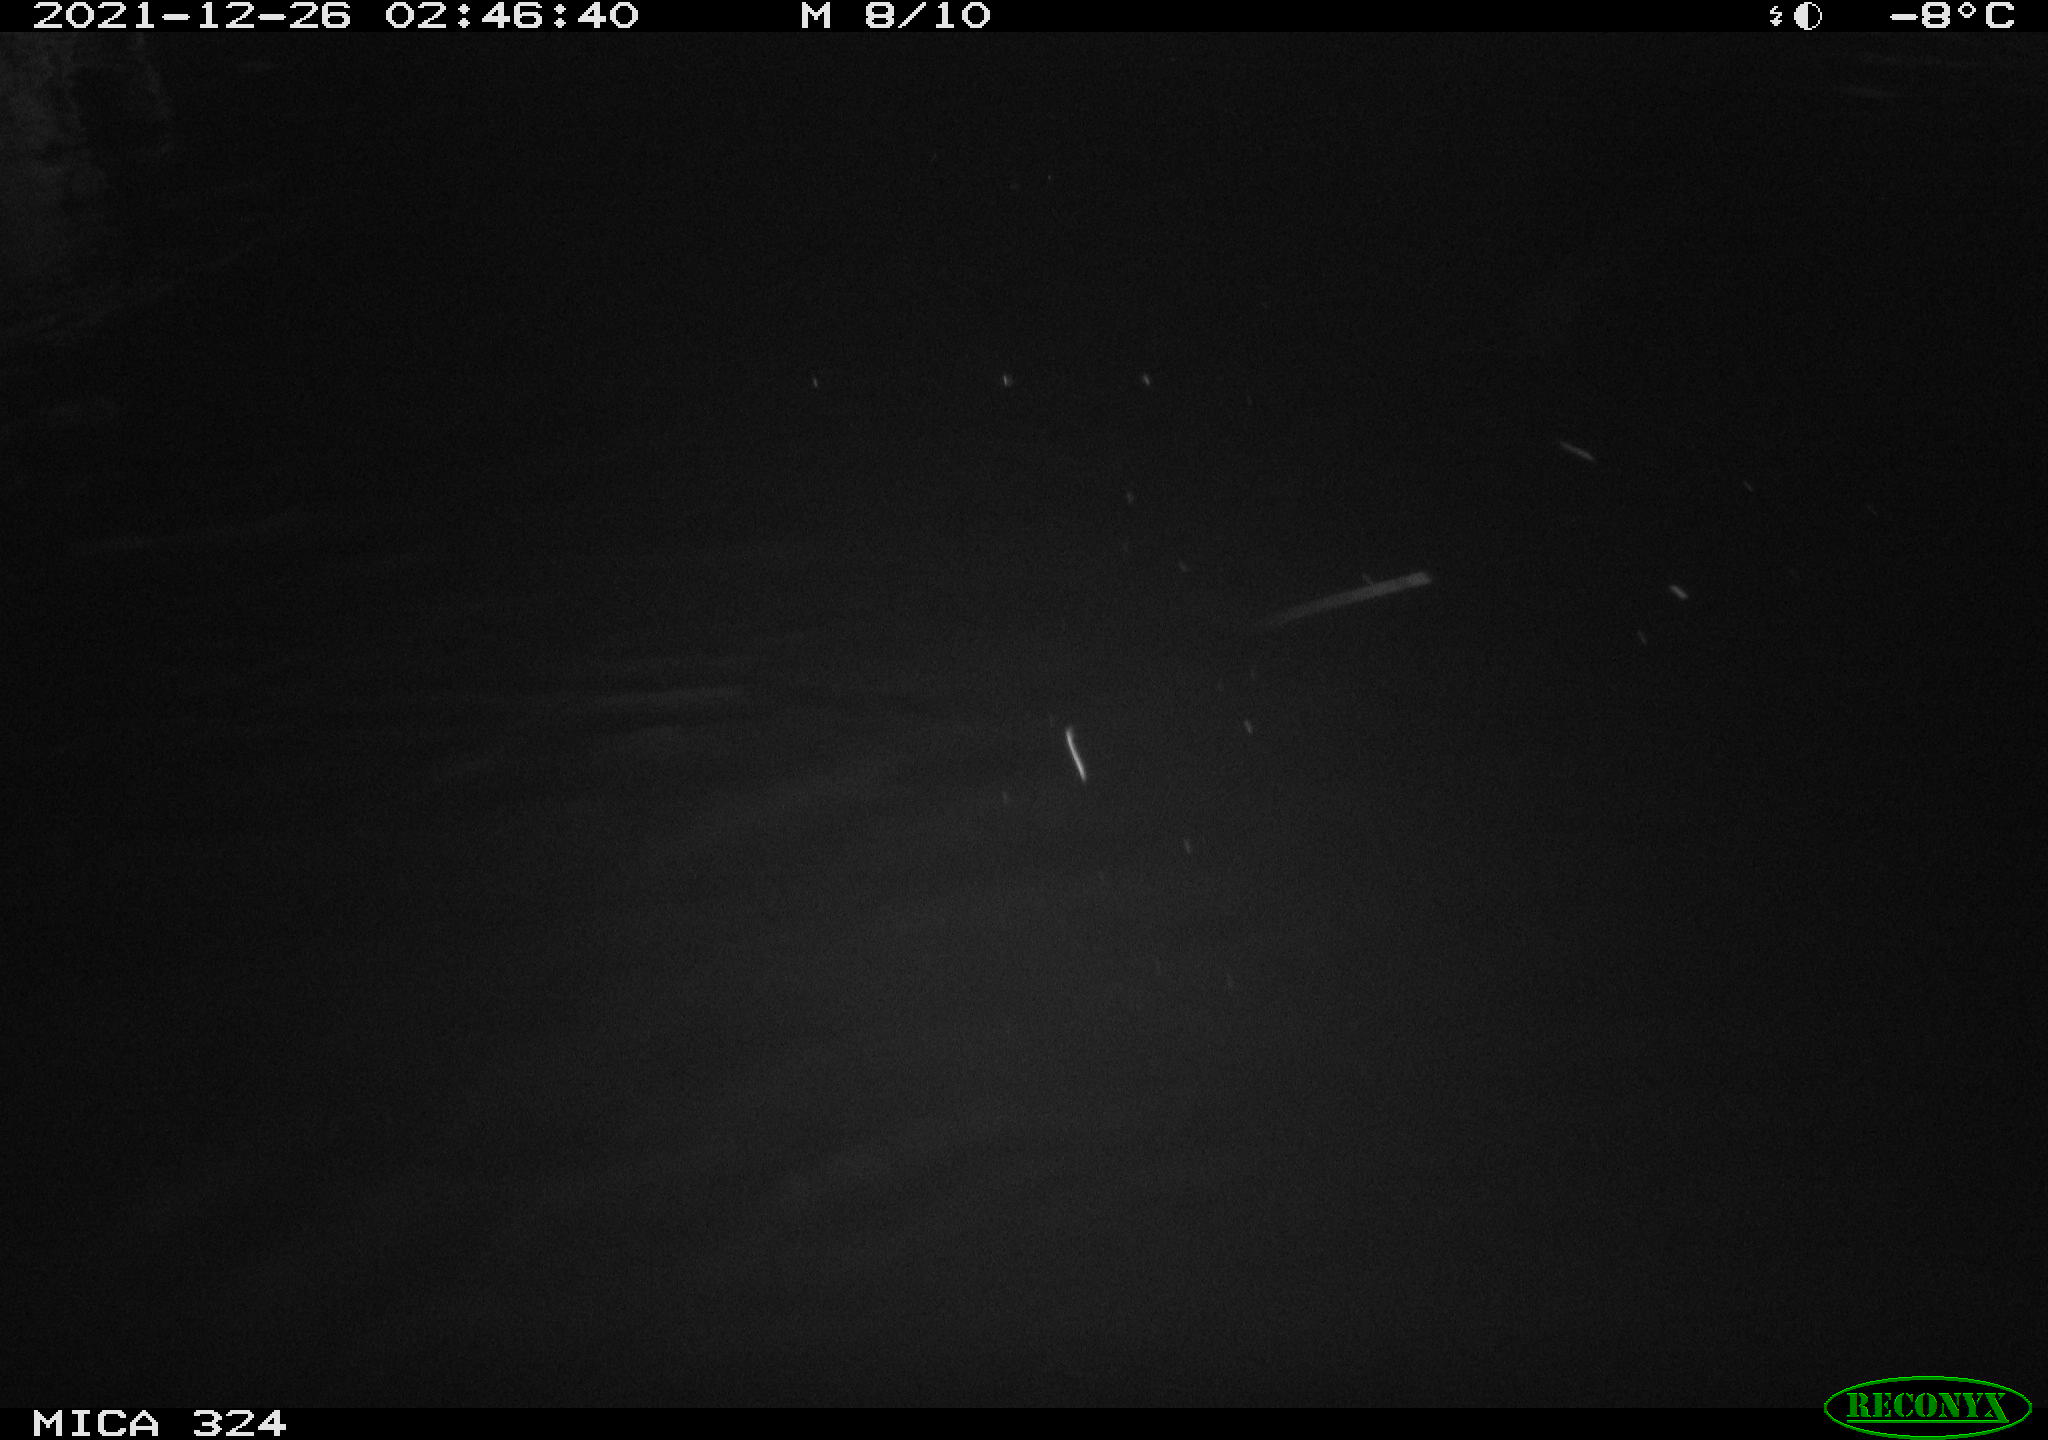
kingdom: Animalia
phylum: Chordata
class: Mammalia
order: Rodentia
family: Cricetidae
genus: Ondatra
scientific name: Ondatra zibethicus
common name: Muskrat
